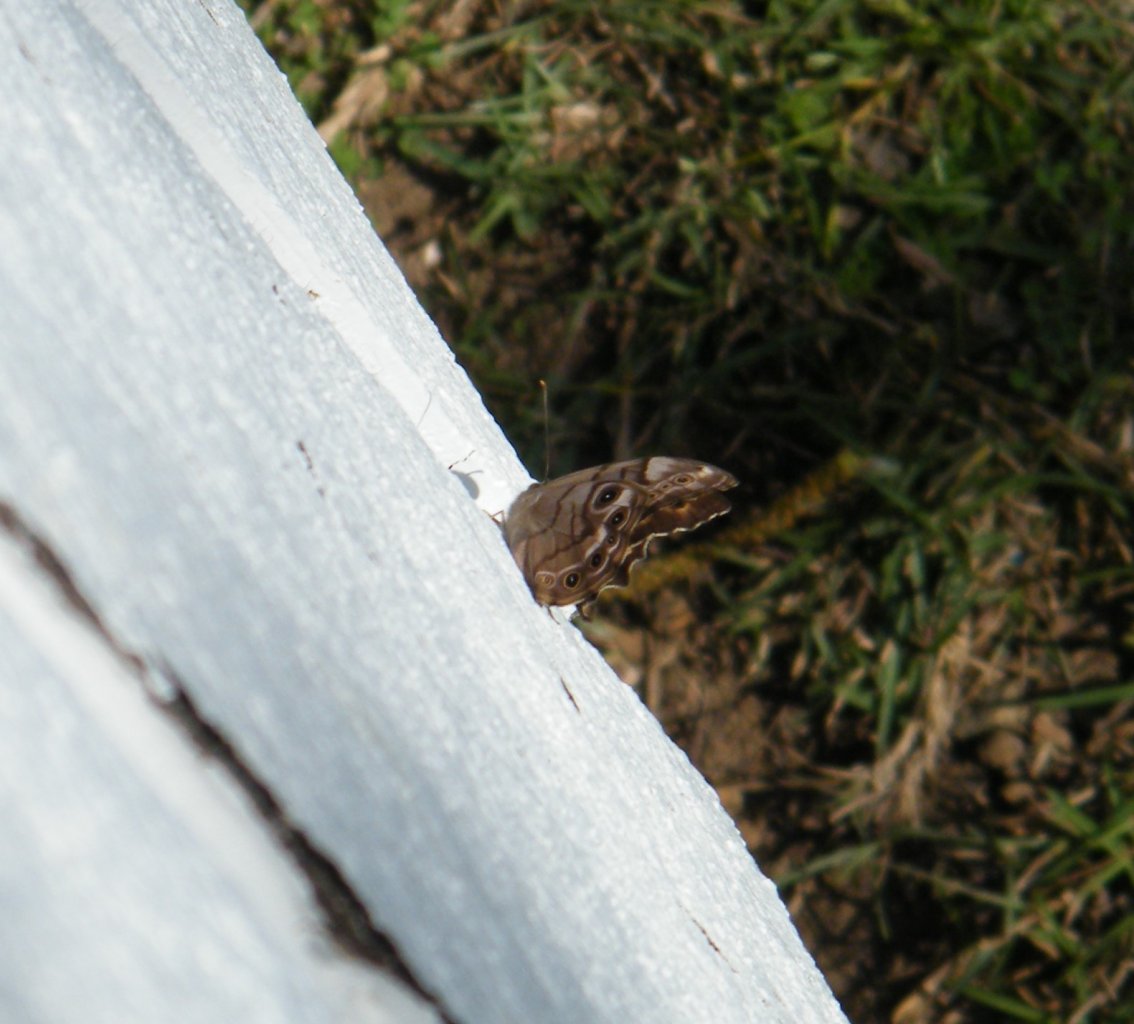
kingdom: Animalia
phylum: Arthropoda
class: Insecta
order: Lepidoptera
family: Nymphalidae
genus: Enodia
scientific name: Enodia portlandia
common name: Southern Pearly Eye
